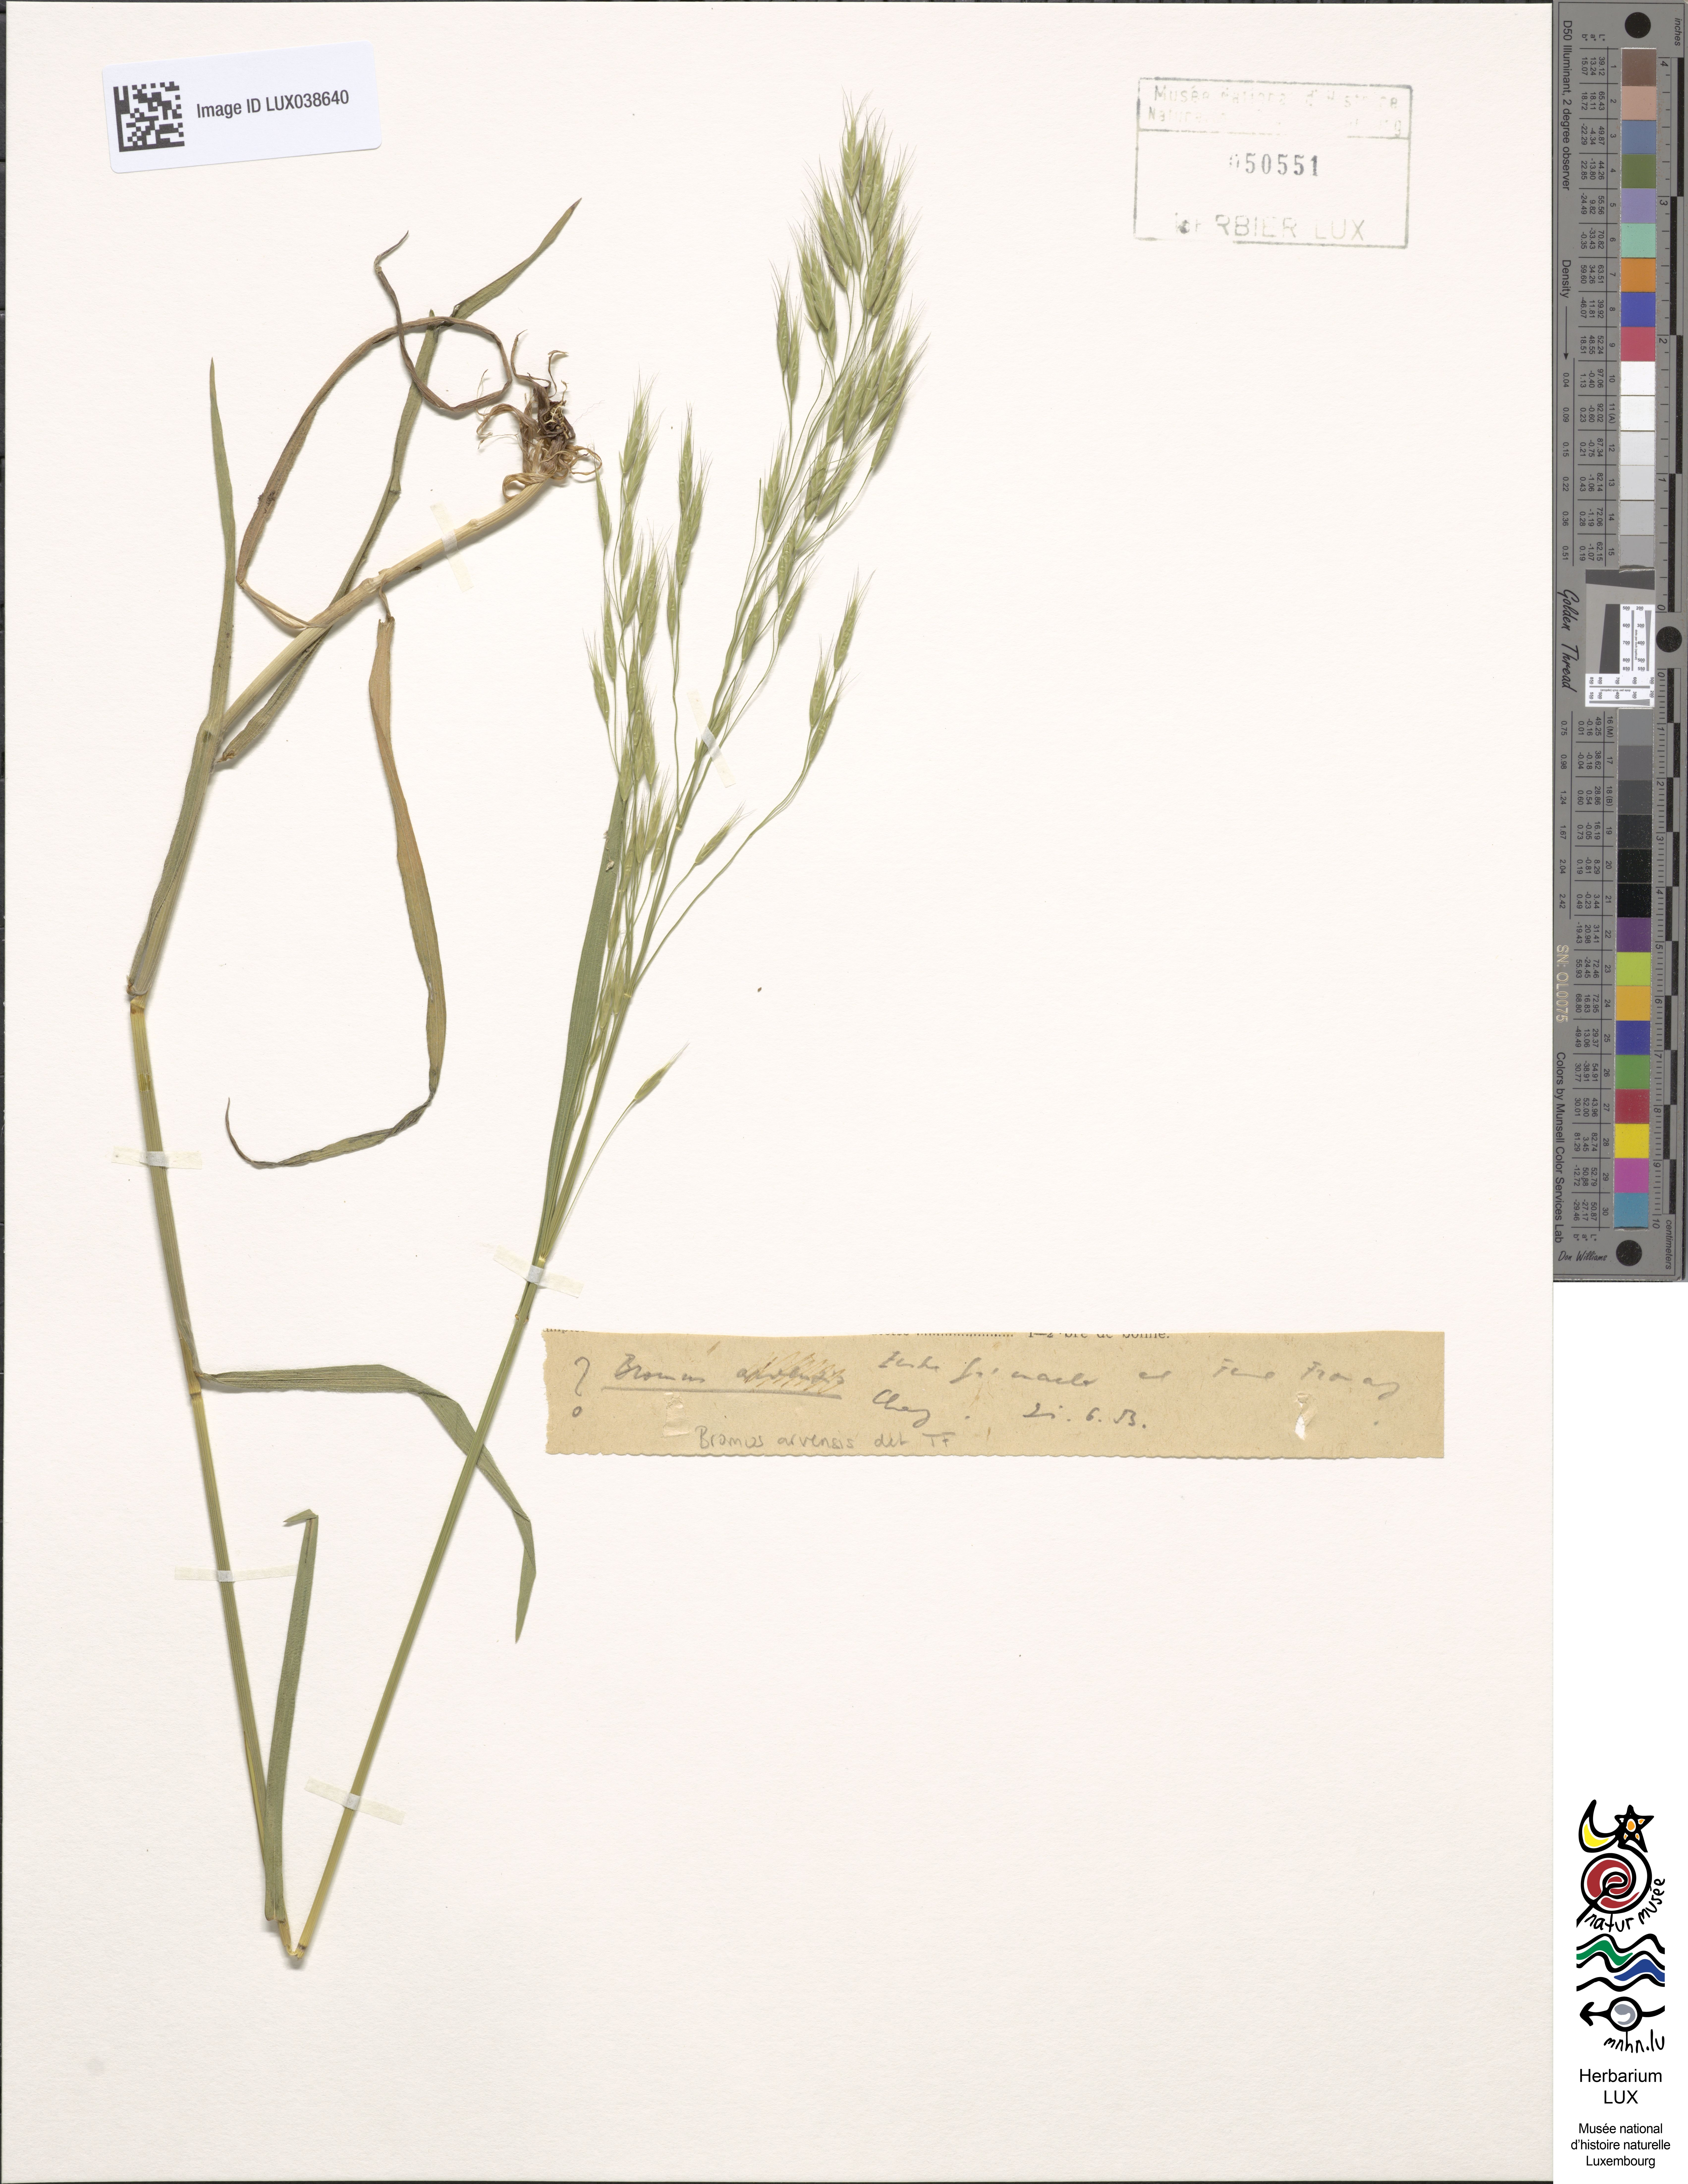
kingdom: Plantae
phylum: Tracheophyta
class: Liliopsida
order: Poales
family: Poaceae
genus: Bromus
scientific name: Bromus arvensis
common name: Field brome
